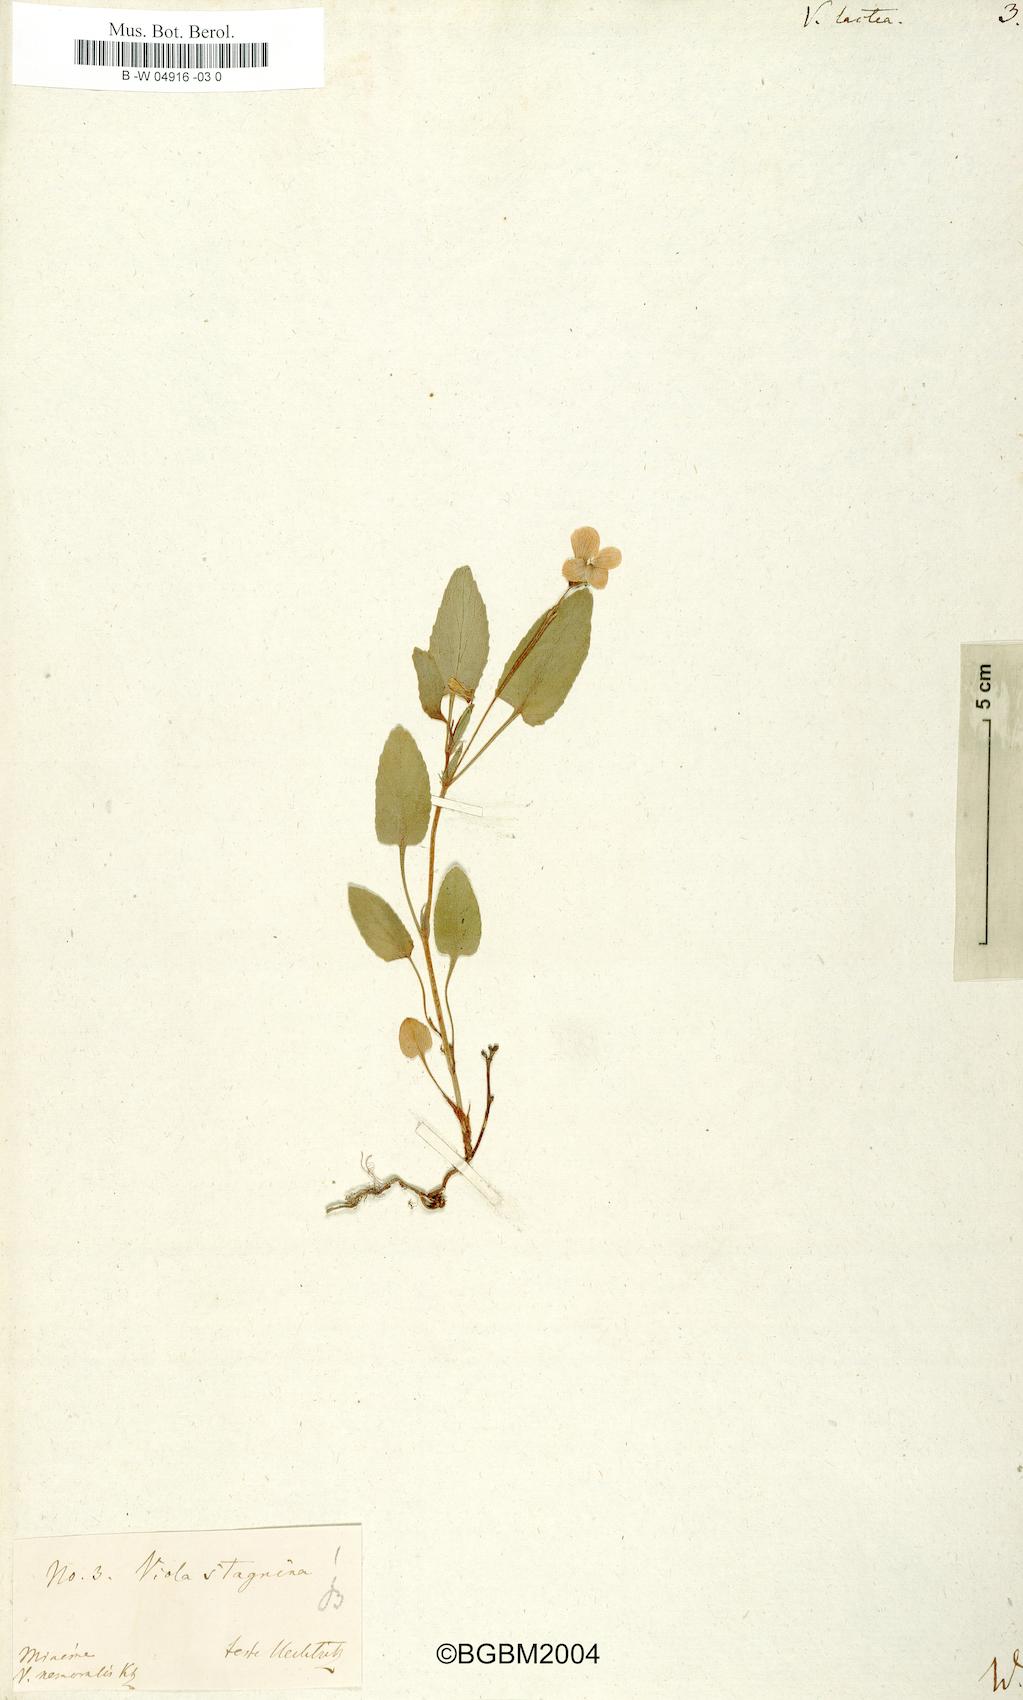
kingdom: Plantae
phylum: Tracheophyta
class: Magnoliopsida
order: Malpighiales
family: Violaceae
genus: Viola
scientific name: Viola lactea
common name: Pale dog-violet
